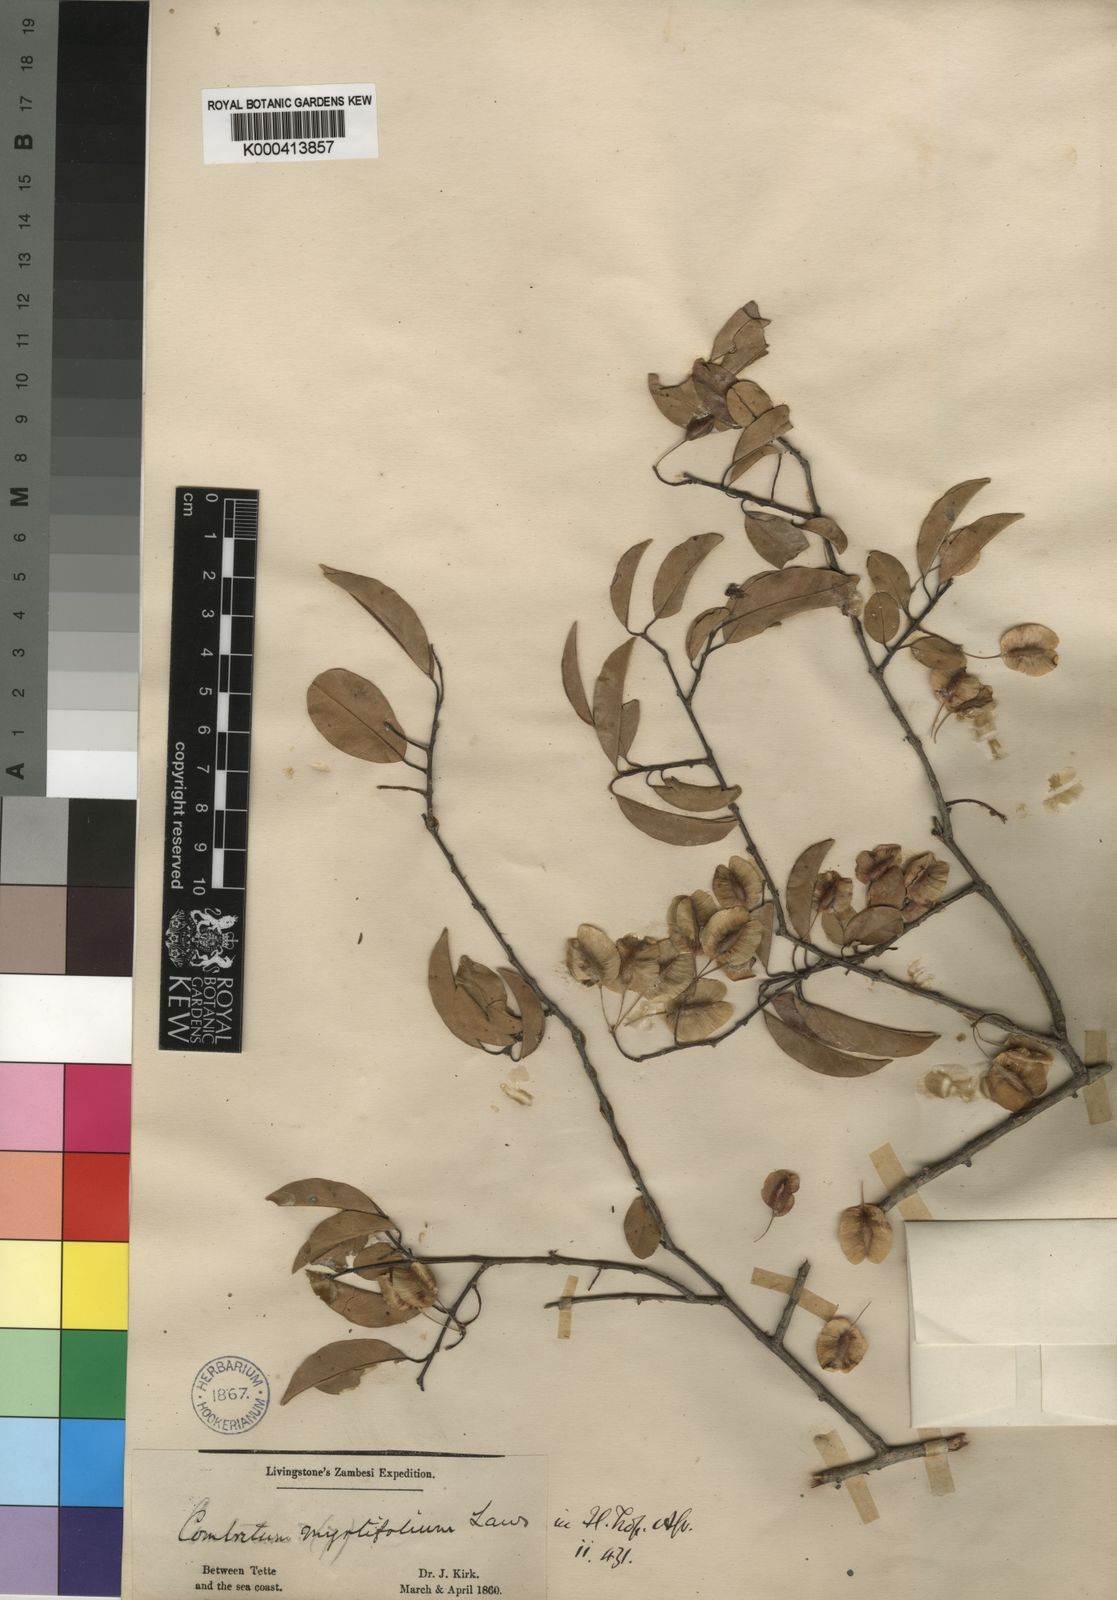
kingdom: Plantae
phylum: Tracheophyta
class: Magnoliopsida
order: Myrtales
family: Combretaceae
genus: Terminalia
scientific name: Terminalia myrtifolia
